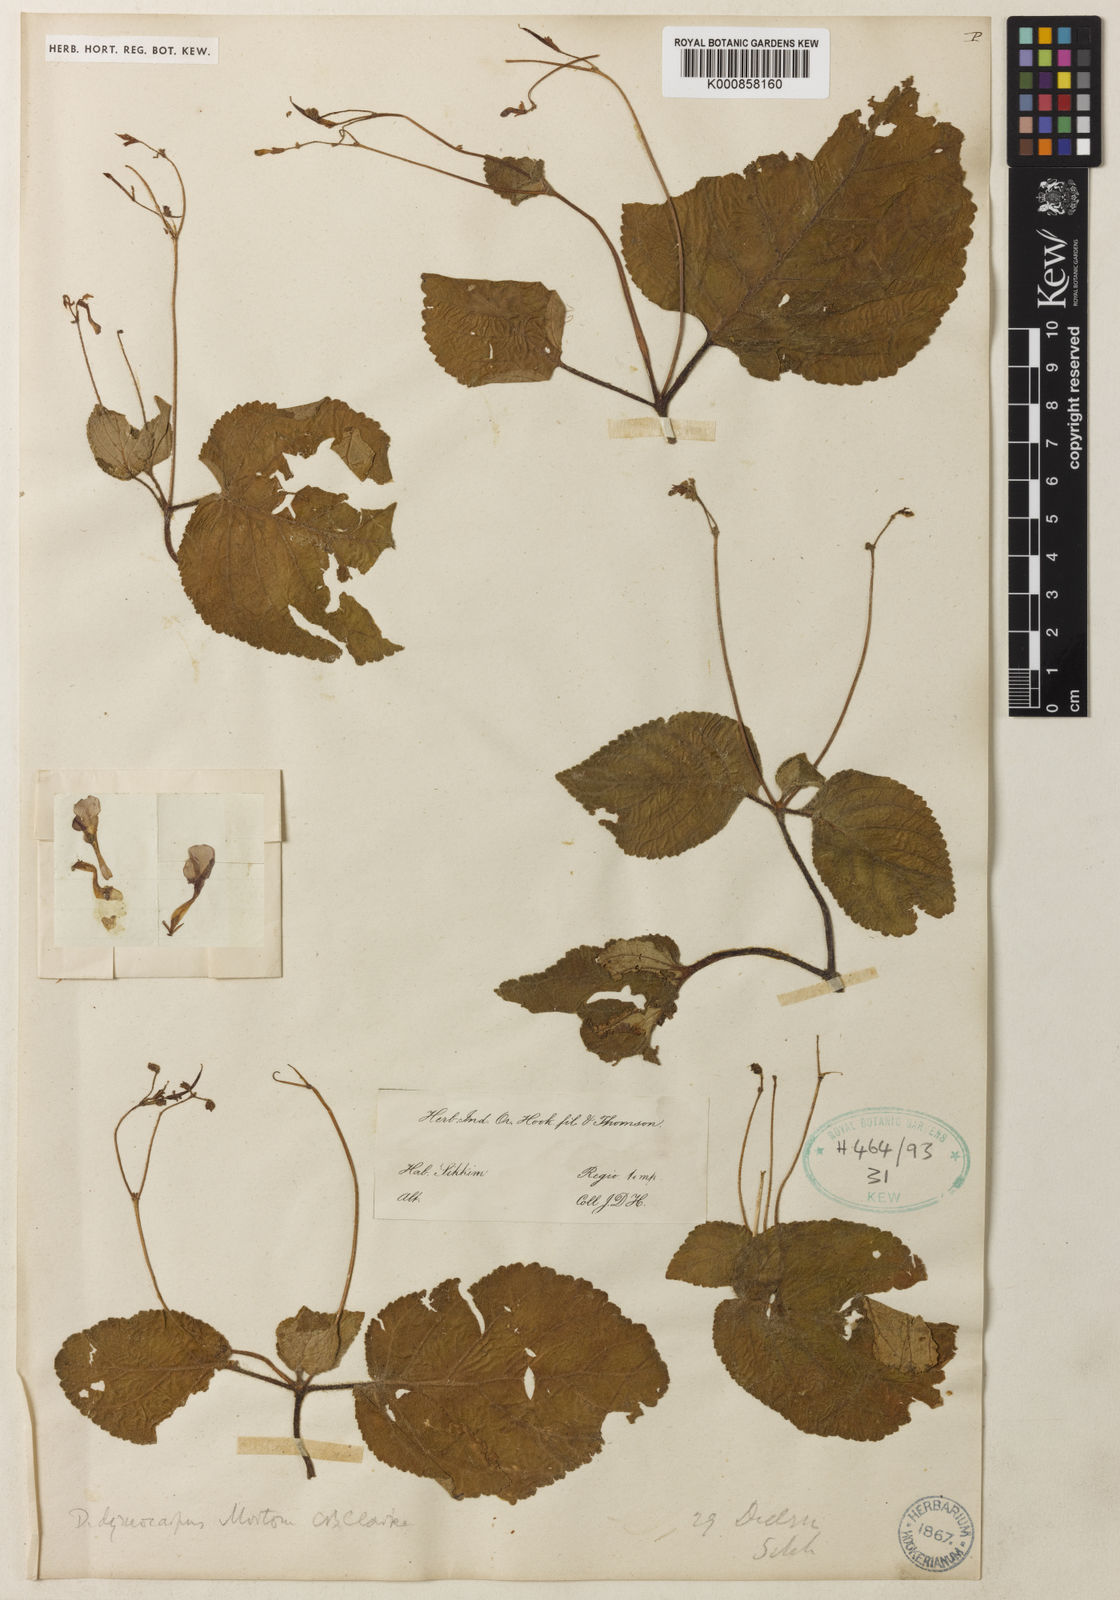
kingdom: Plantae
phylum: Tracheophyta
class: Magnoliopsida
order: Lamiales
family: Gesneriaceae
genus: Henckelia
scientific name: Henckelia
